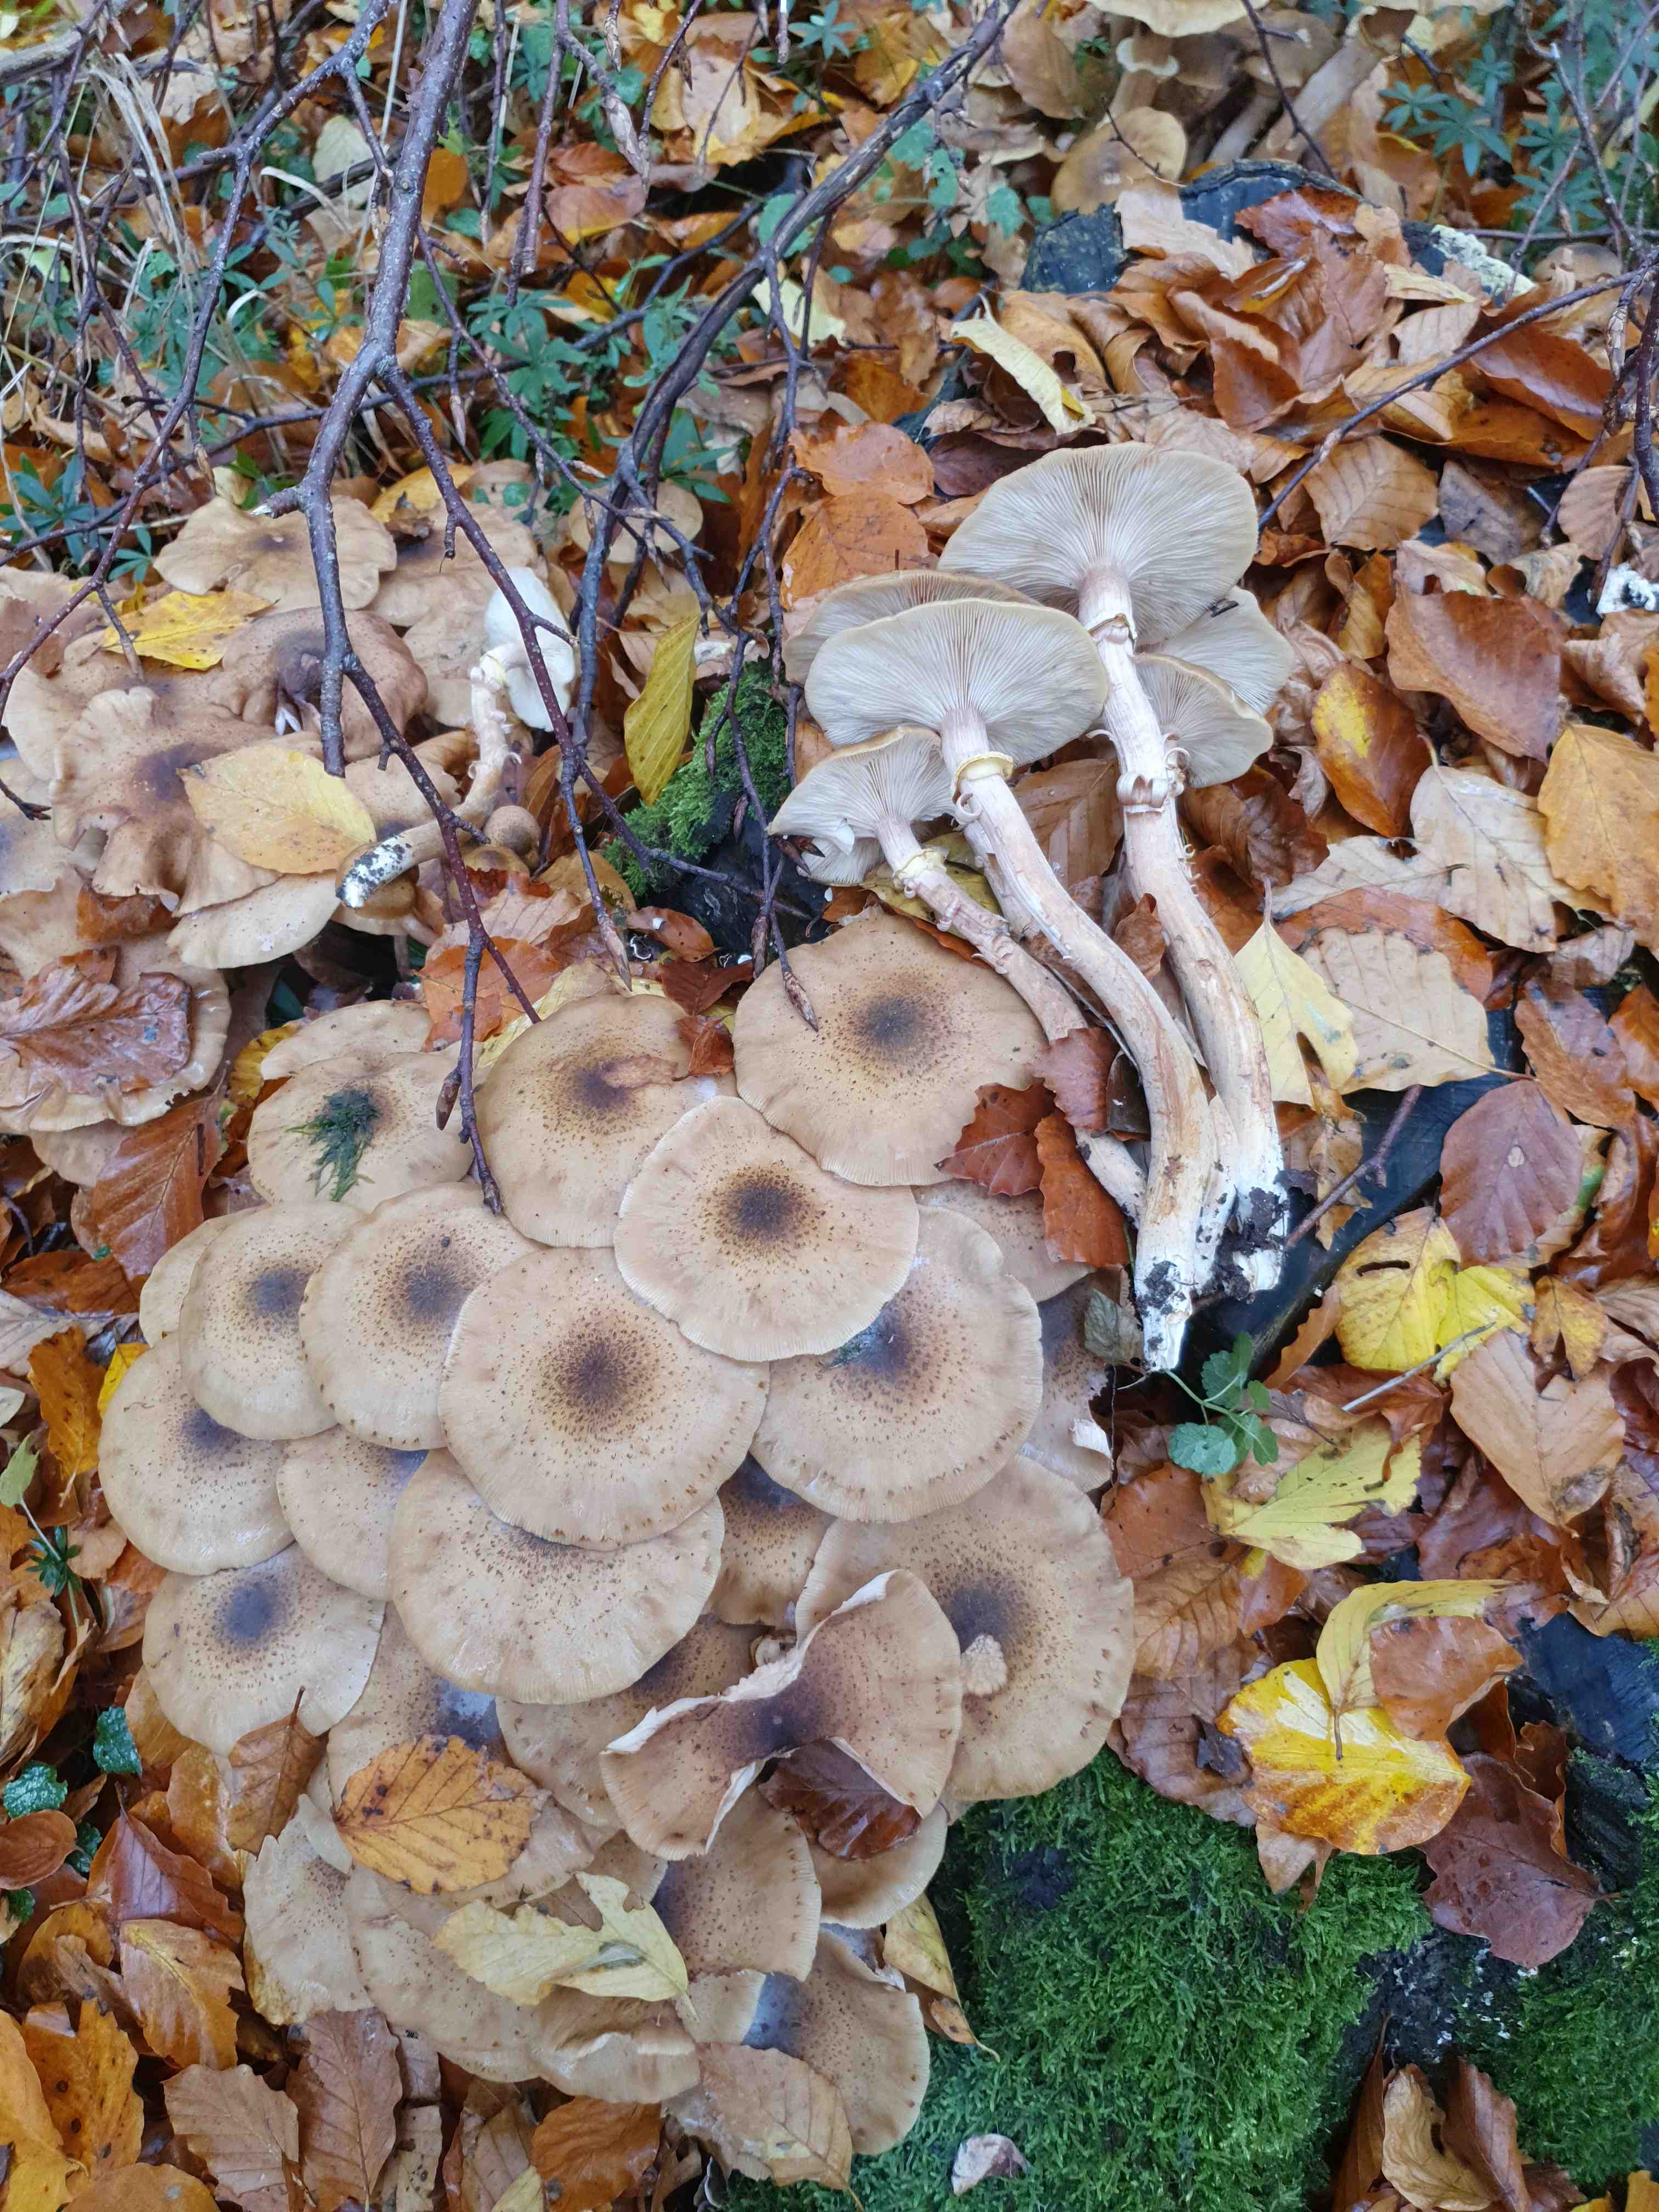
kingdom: Fungi
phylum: Basidiomycota
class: Agaricomycetes
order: Agaricales
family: Physalacriaceae
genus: Armillaria
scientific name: Armillaria mellea
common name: ægte honningsvamp
